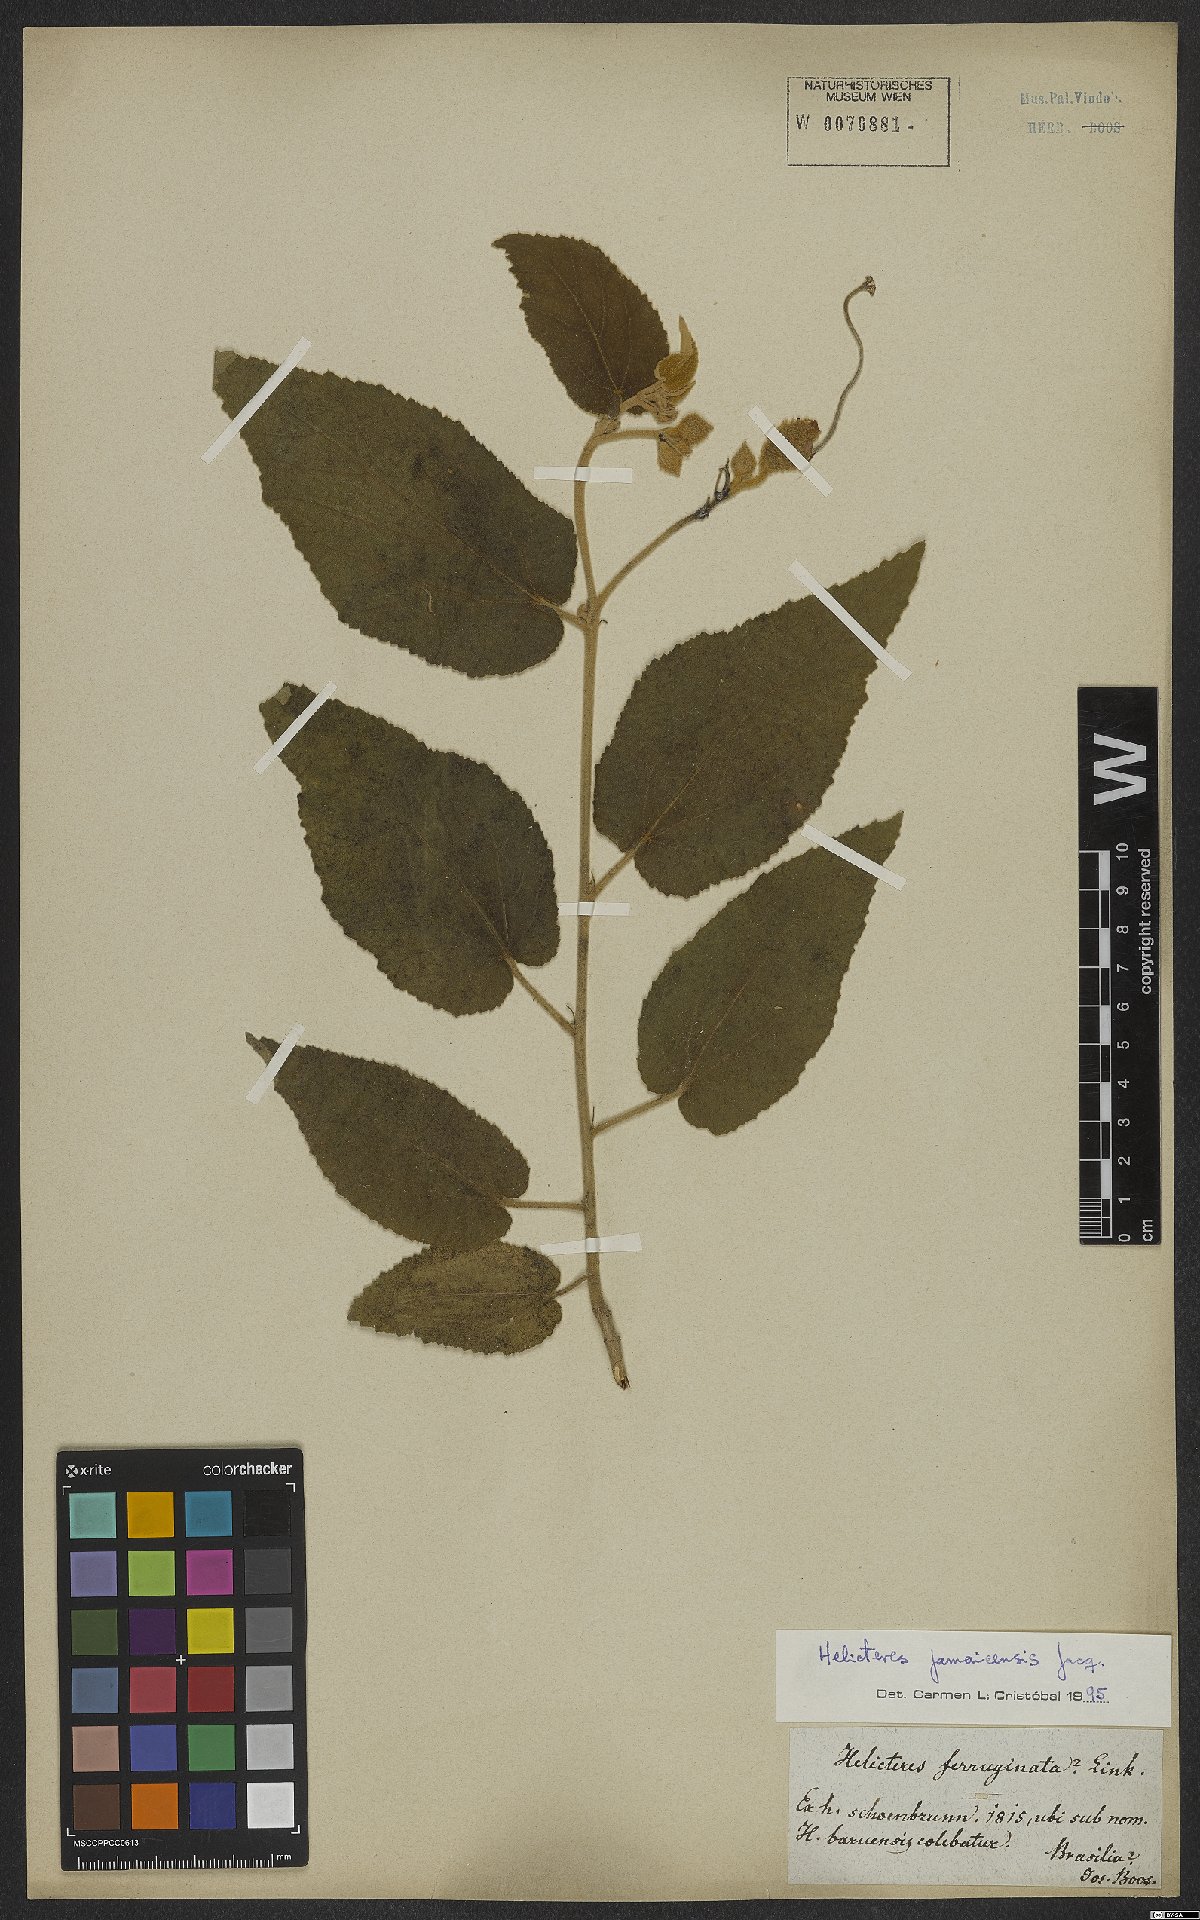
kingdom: Plantae
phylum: Tracheophyta
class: Magnoliopsida
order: Malvales
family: Malvaceae
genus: Helicteres
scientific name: Helicteres jamaicensis
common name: Cowbush
